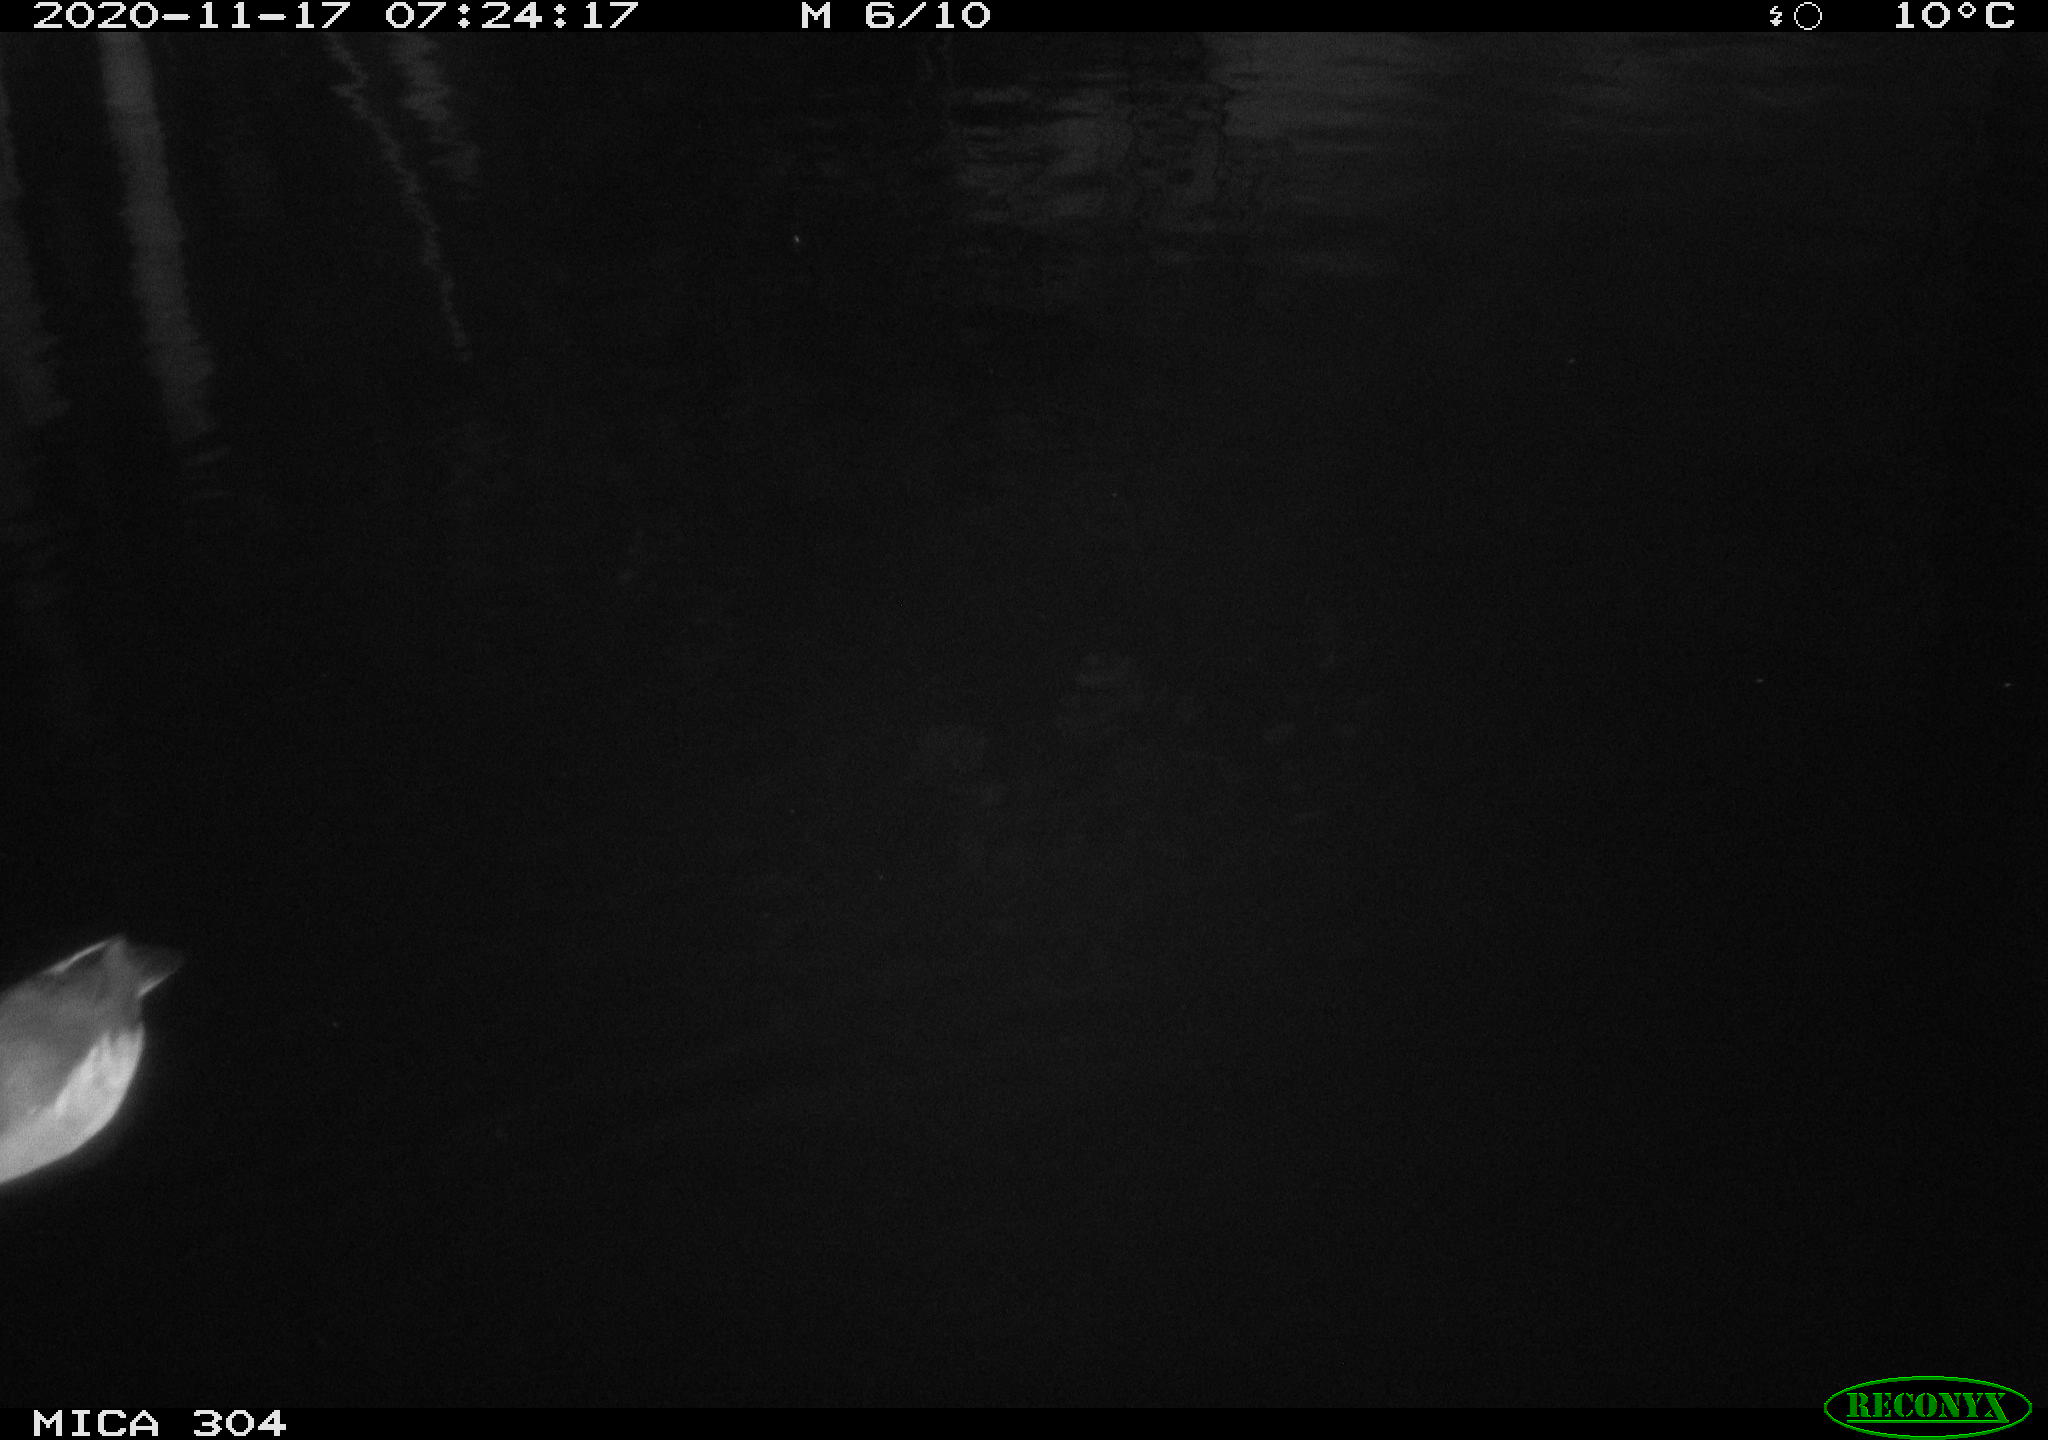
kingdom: Animalia
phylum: Chordata
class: Aves
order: Gruiformes
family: Rallidae
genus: Gallinula
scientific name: Gallinula chloropus
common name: Common moorhen
